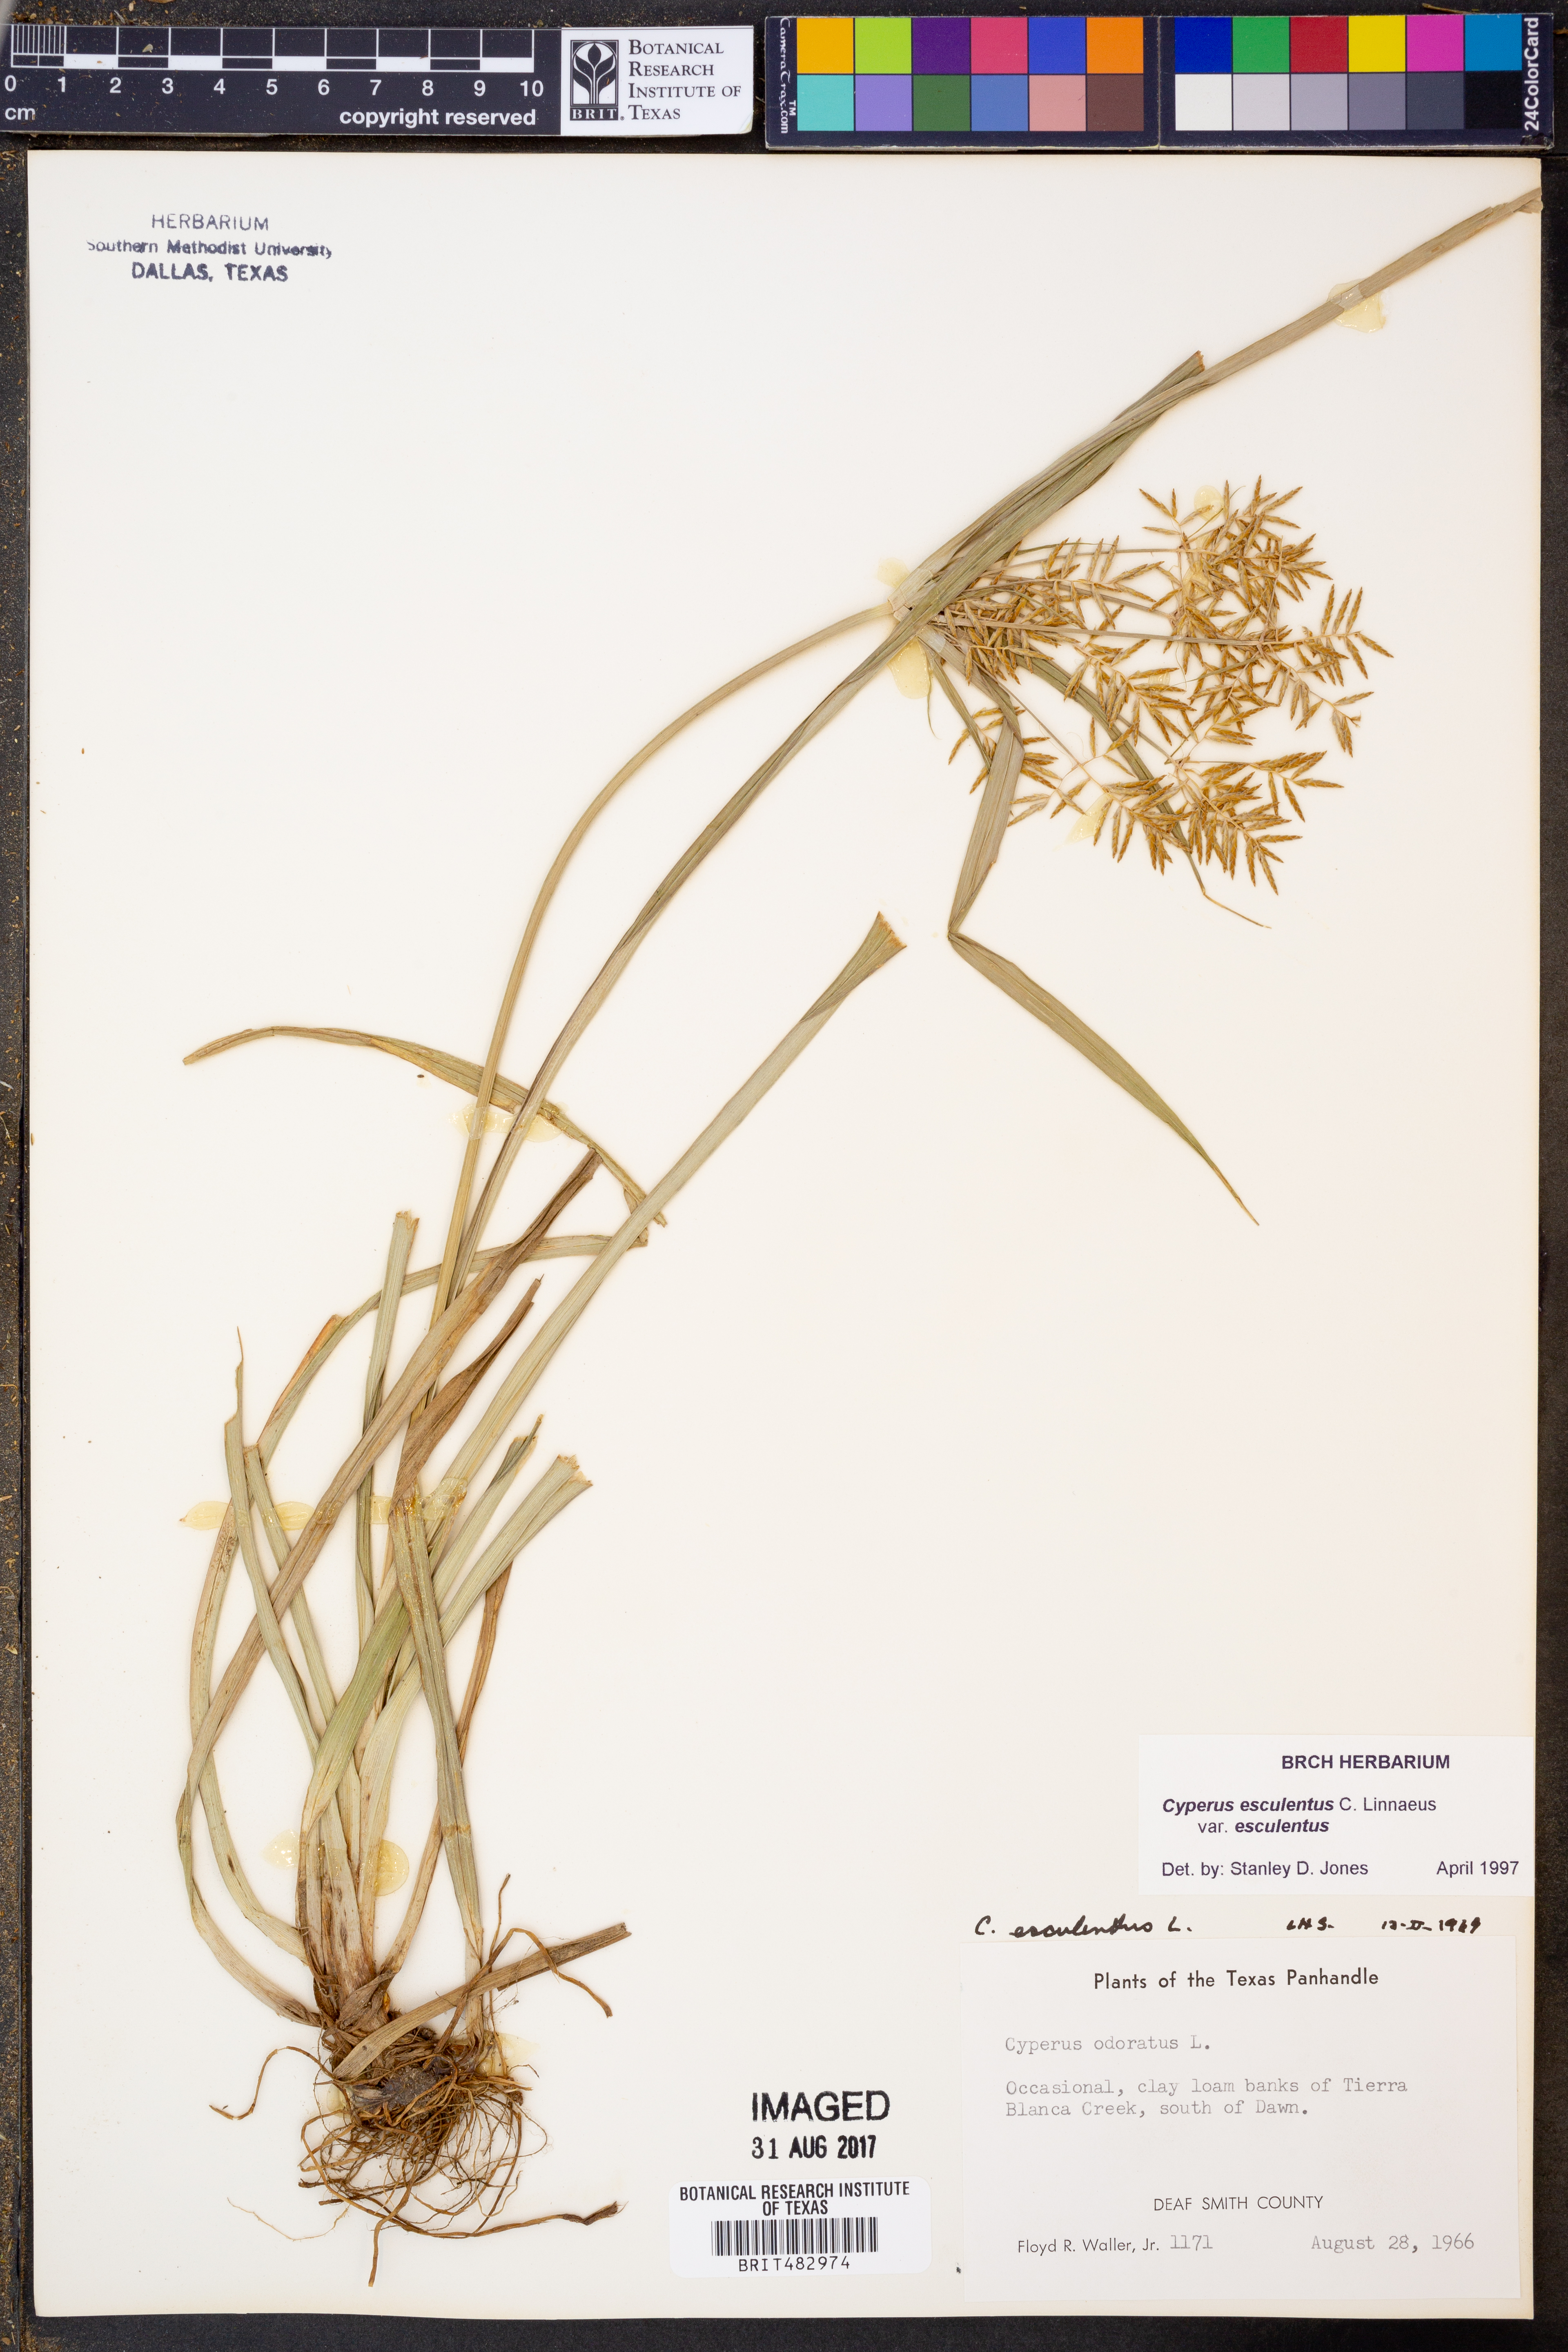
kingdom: Plantae
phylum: Tracheophyta
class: Liliopsida
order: Poales
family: Cyperaceae
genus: Cyperus
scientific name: Cyperus esculentus
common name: Yellow nutsedge
